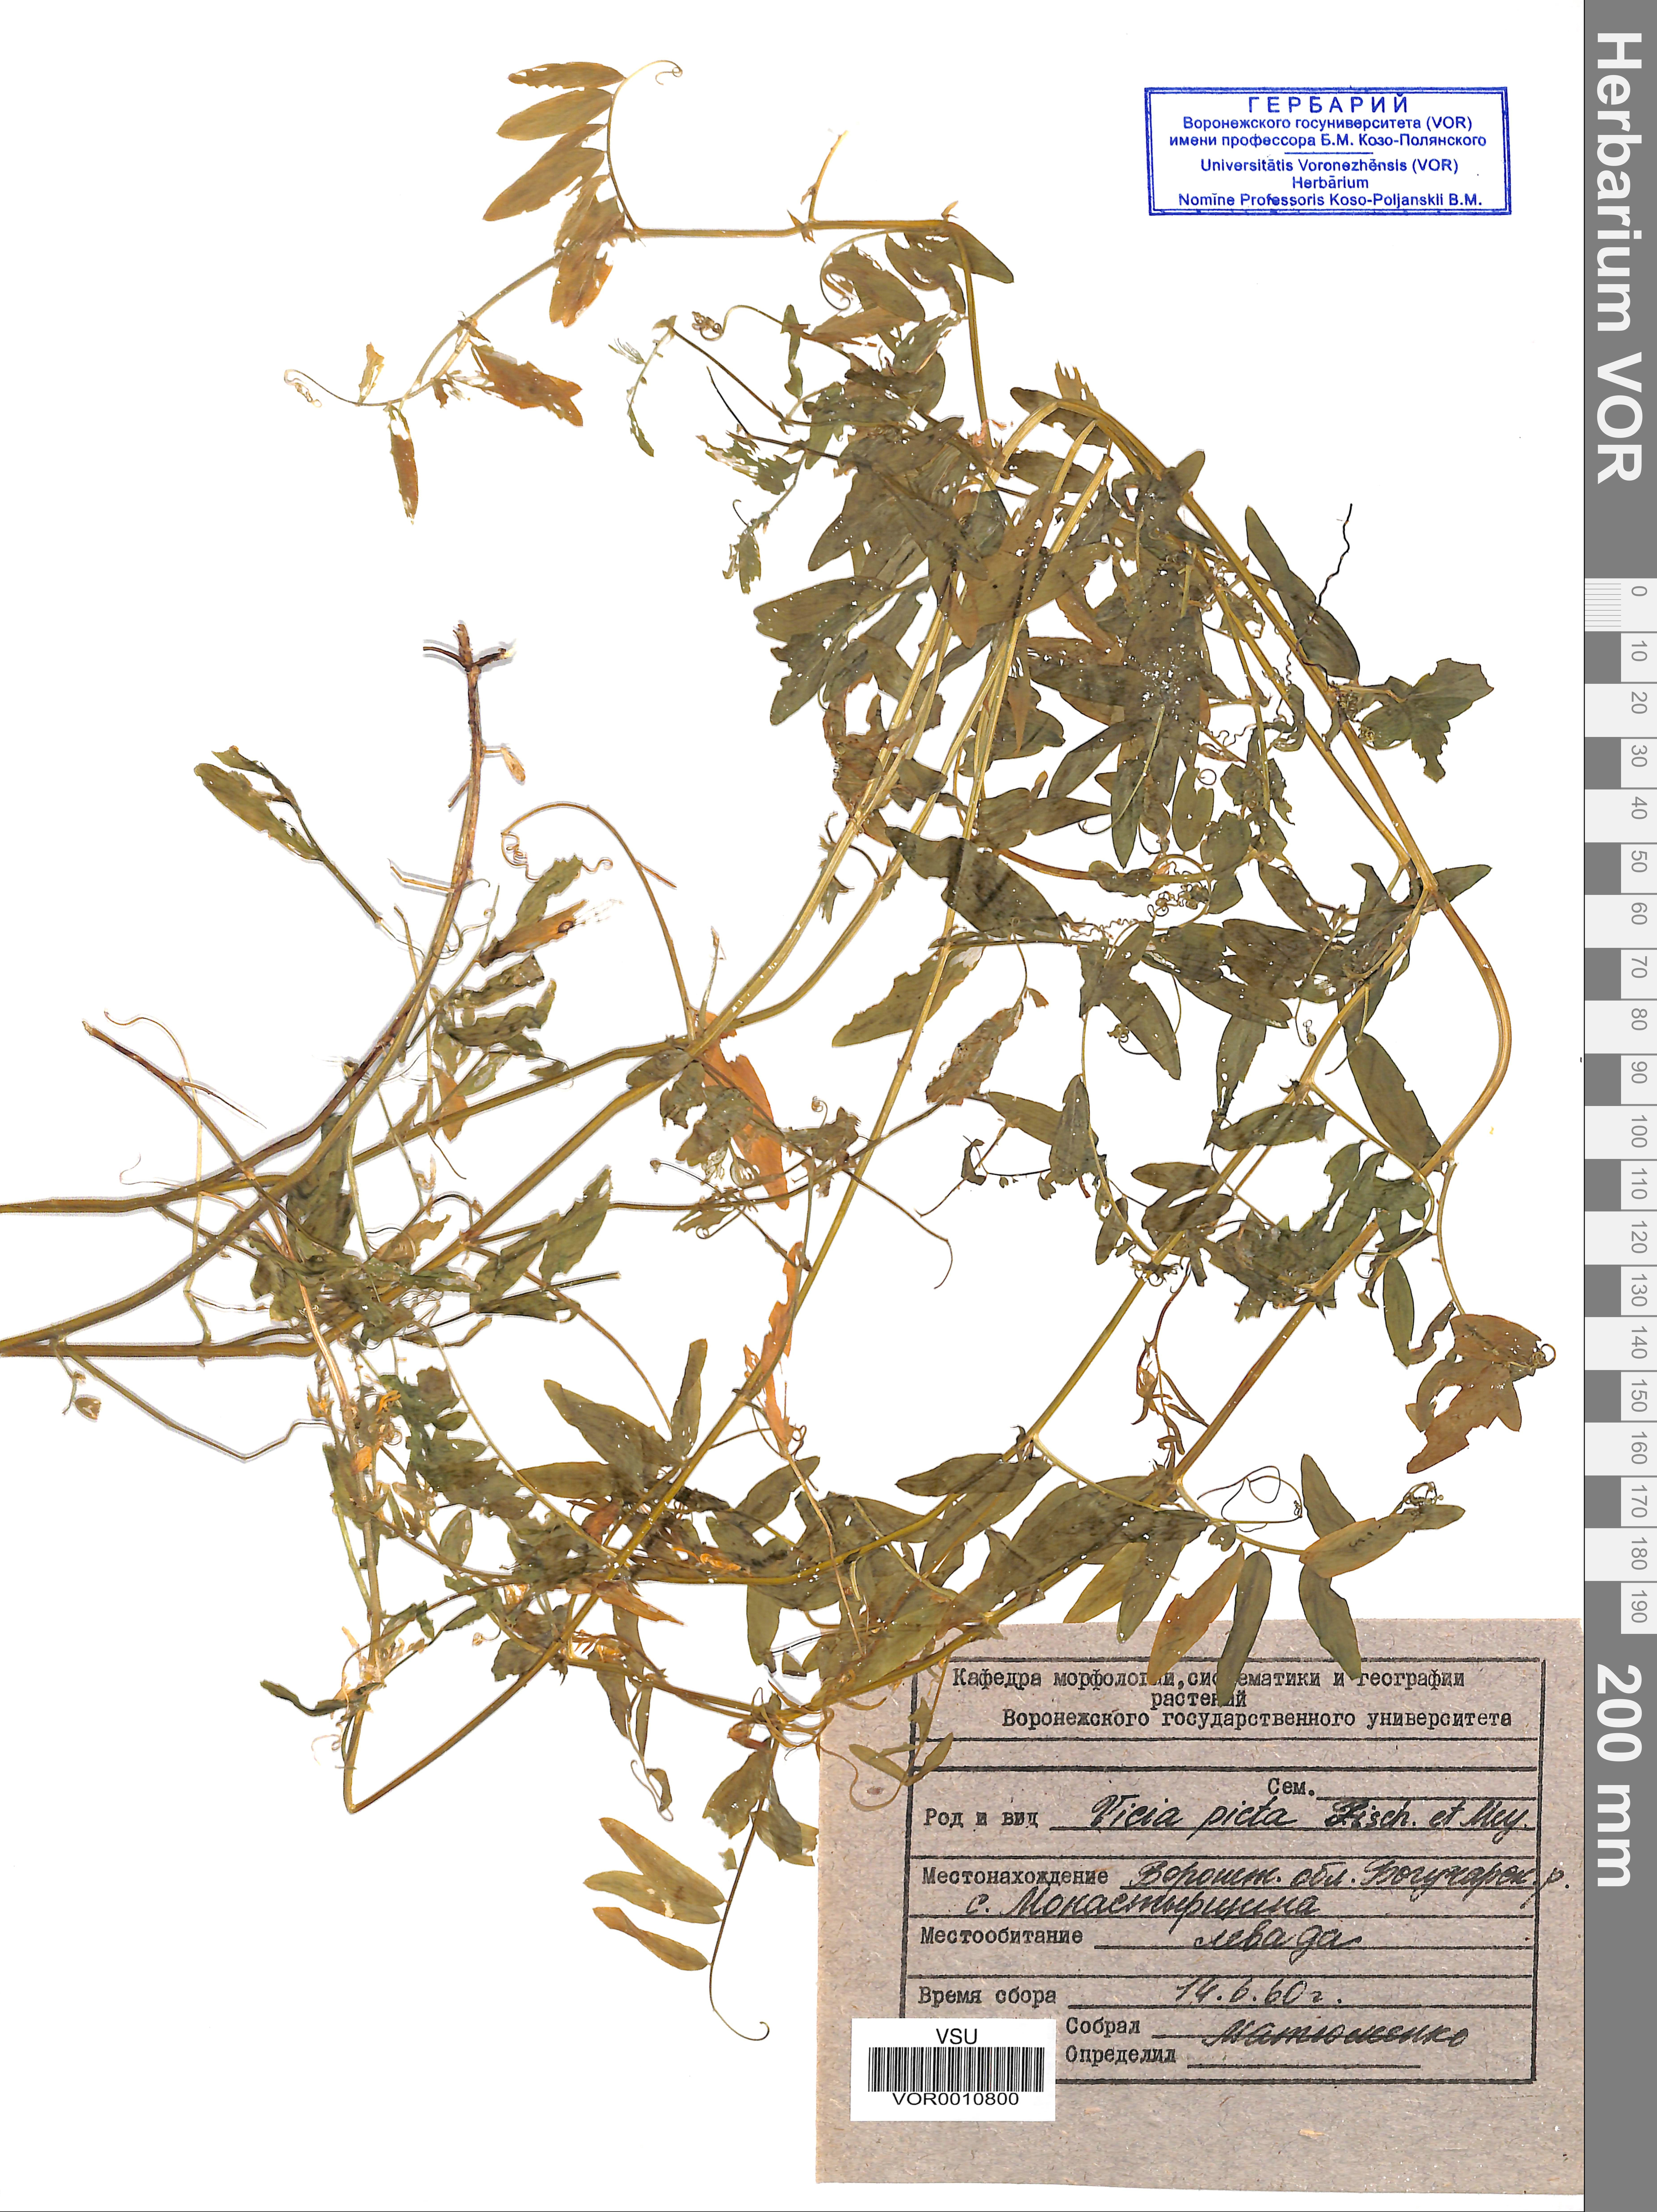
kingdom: Plantae
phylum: Tracheophyta
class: Magnoliopsida
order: Fabales
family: Fabaceae
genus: Vicia
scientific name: Vicia biennis
